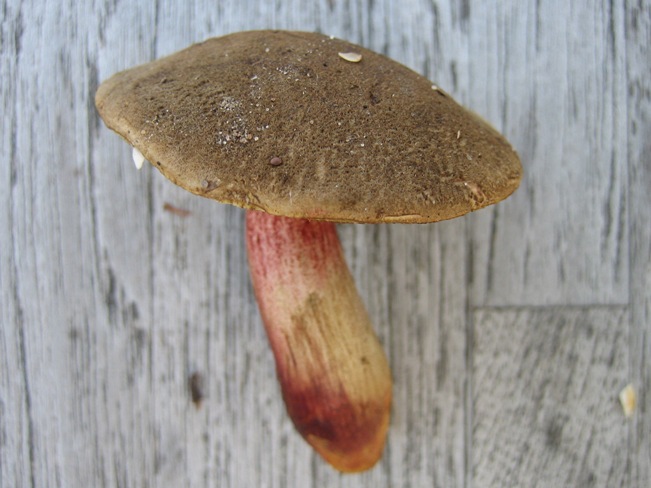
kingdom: Fungi
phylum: Basidiomycota
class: Agaricomycetes
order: Boletales
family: Boletaceae
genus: Xerocomellus
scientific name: Xerocomellus chrysenteron
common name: rødsprukken rørhat
